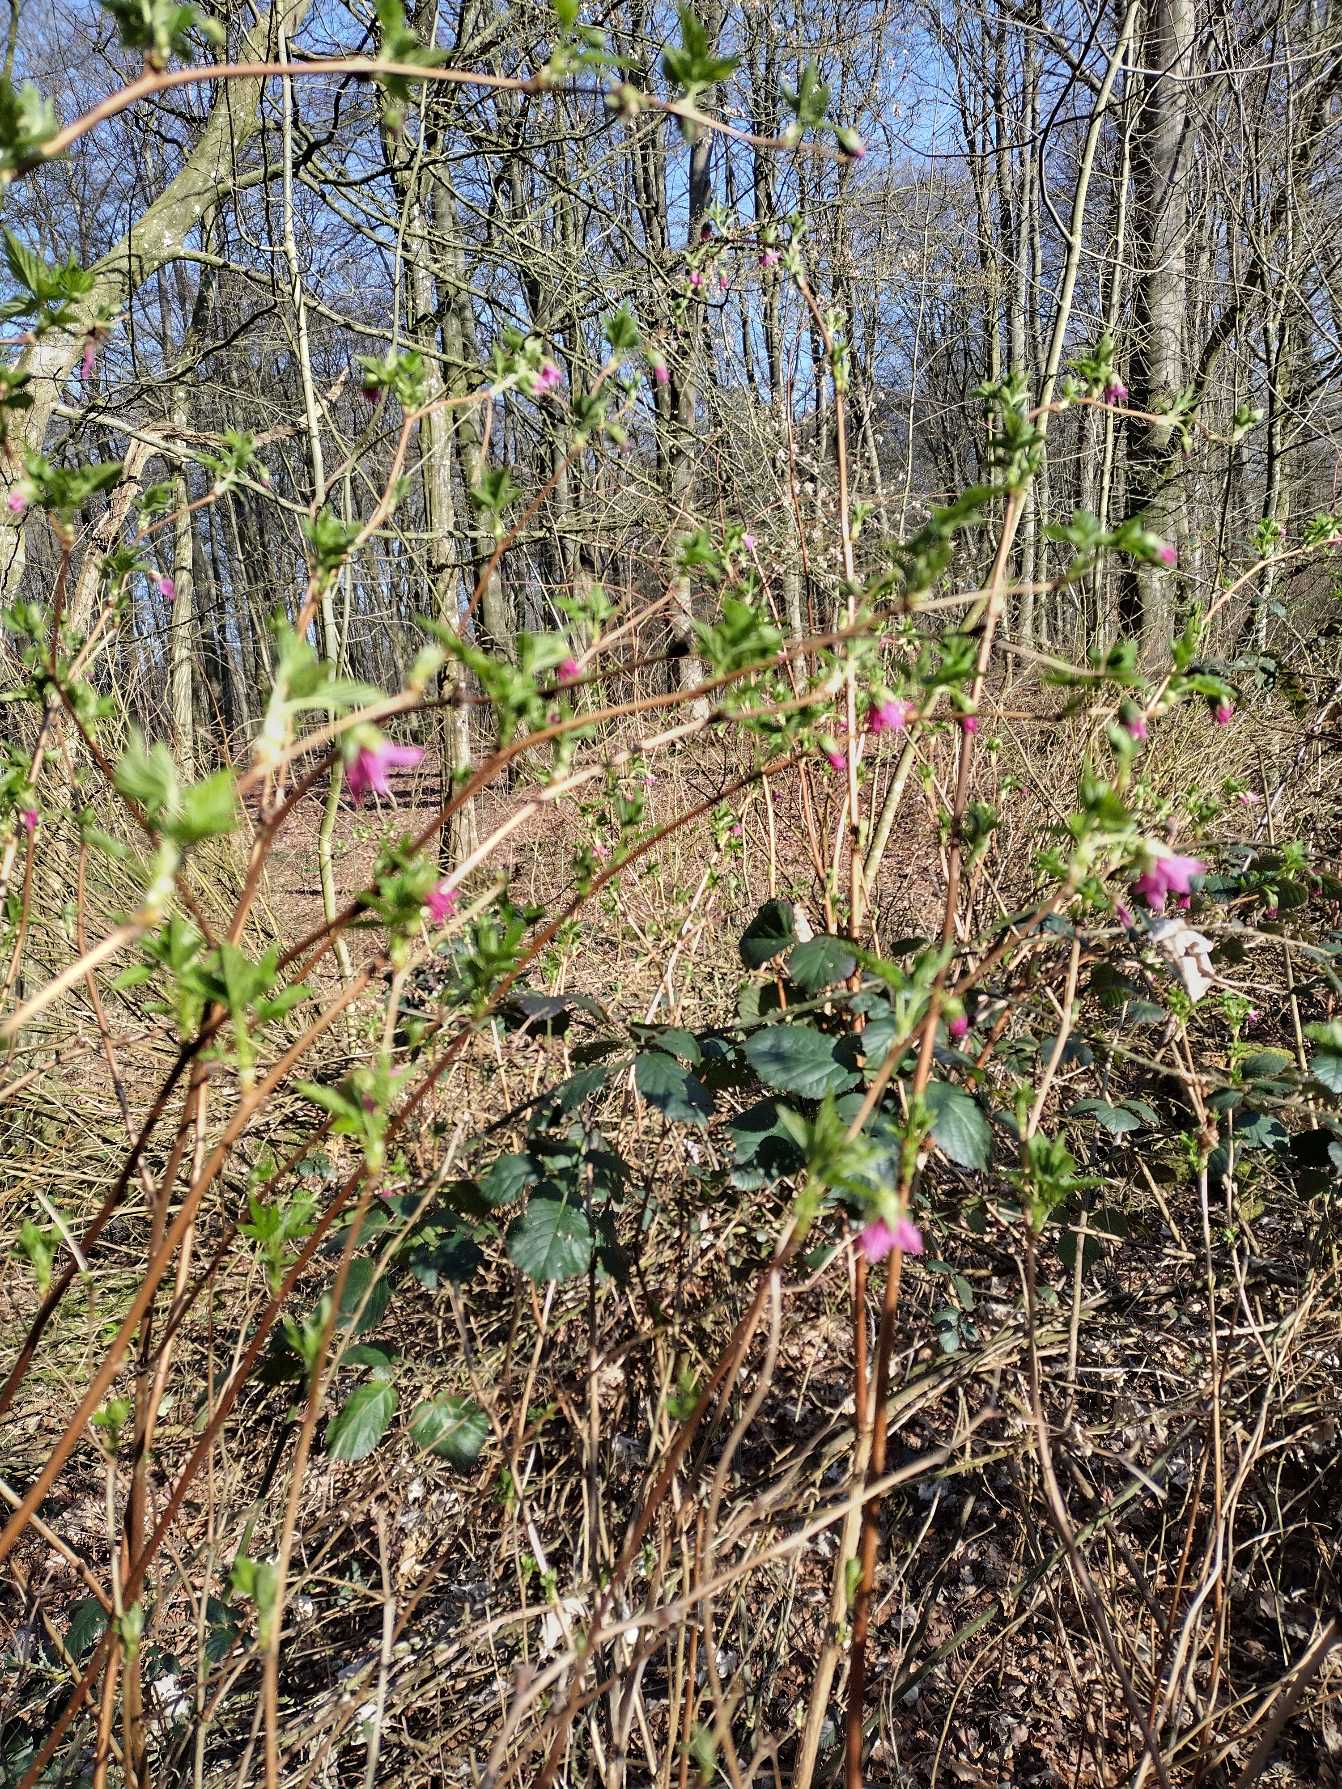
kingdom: Plantae
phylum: Tracheophyta
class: Magnoliopsida
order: Rosales
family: Rosaceae
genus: Rubus
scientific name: Rubus spectabilis
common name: Laksebær
